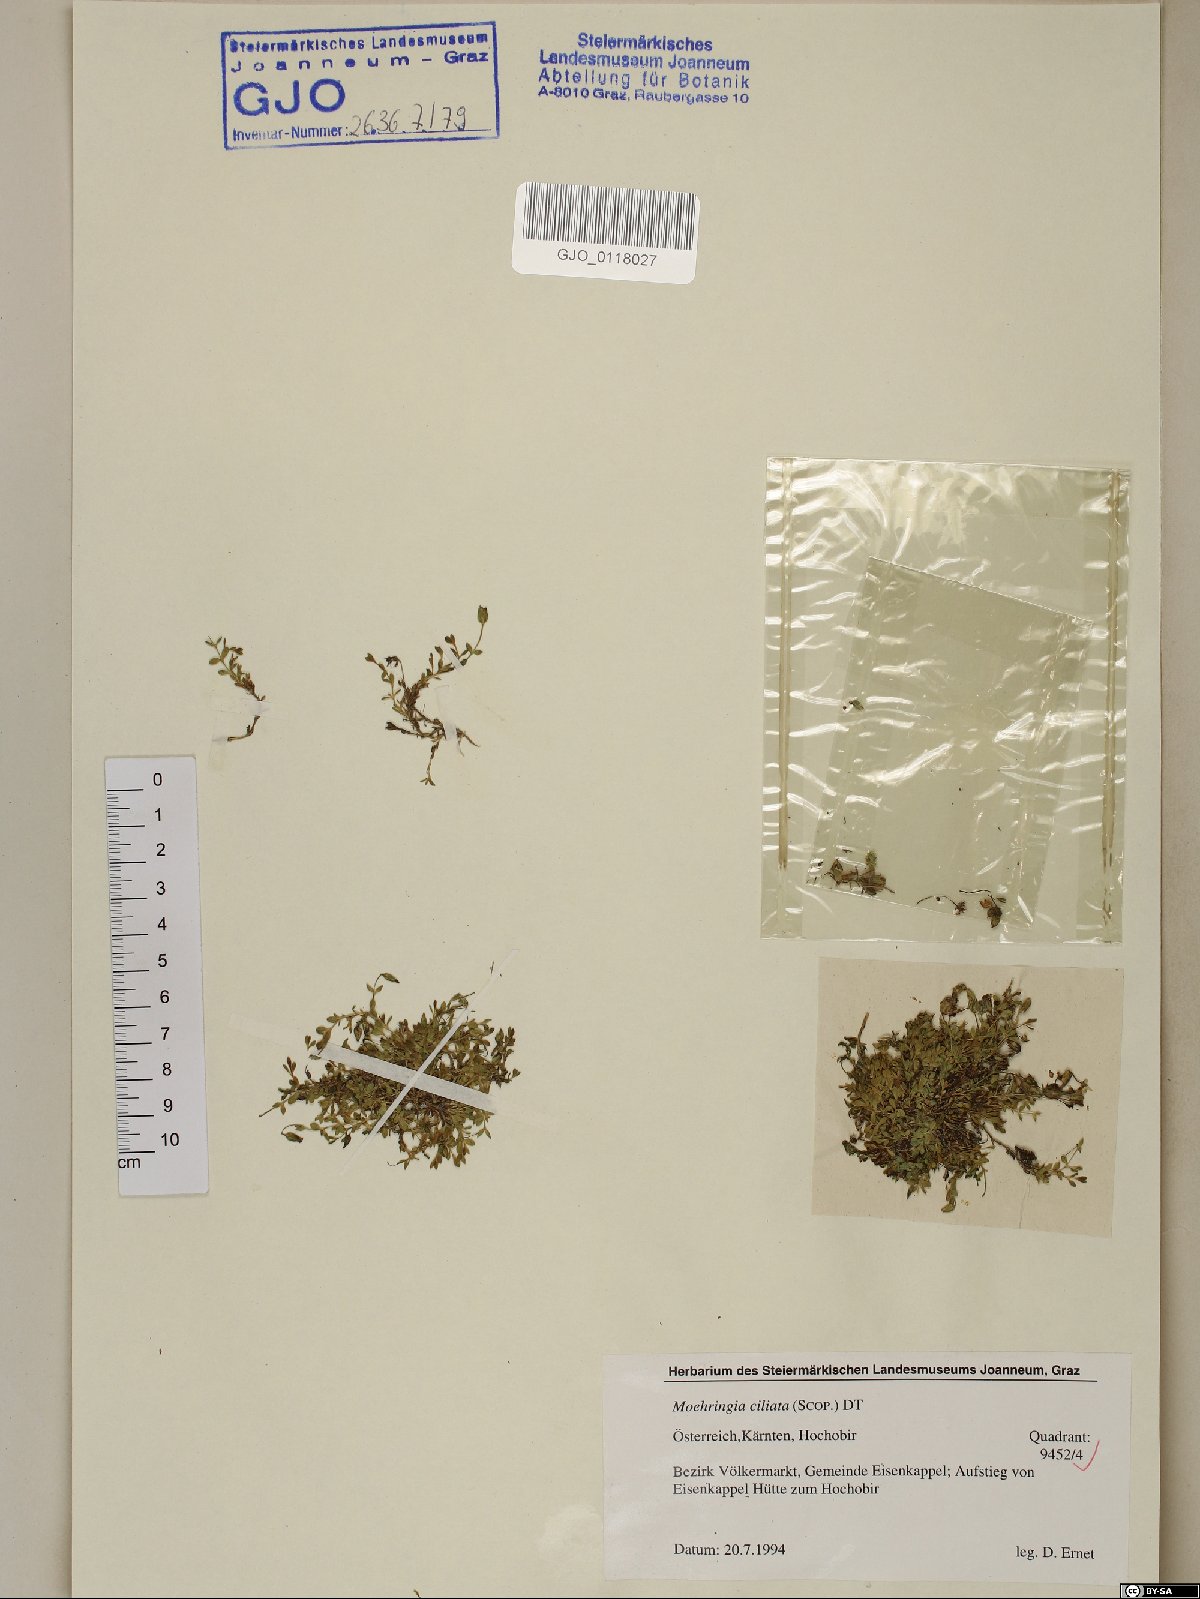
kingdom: Plantae
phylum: Tracheophyta
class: Magnoliopsida
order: Caryophyllales
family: Caryophyllaceae
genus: Moehringia
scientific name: Moehringia ciliata
